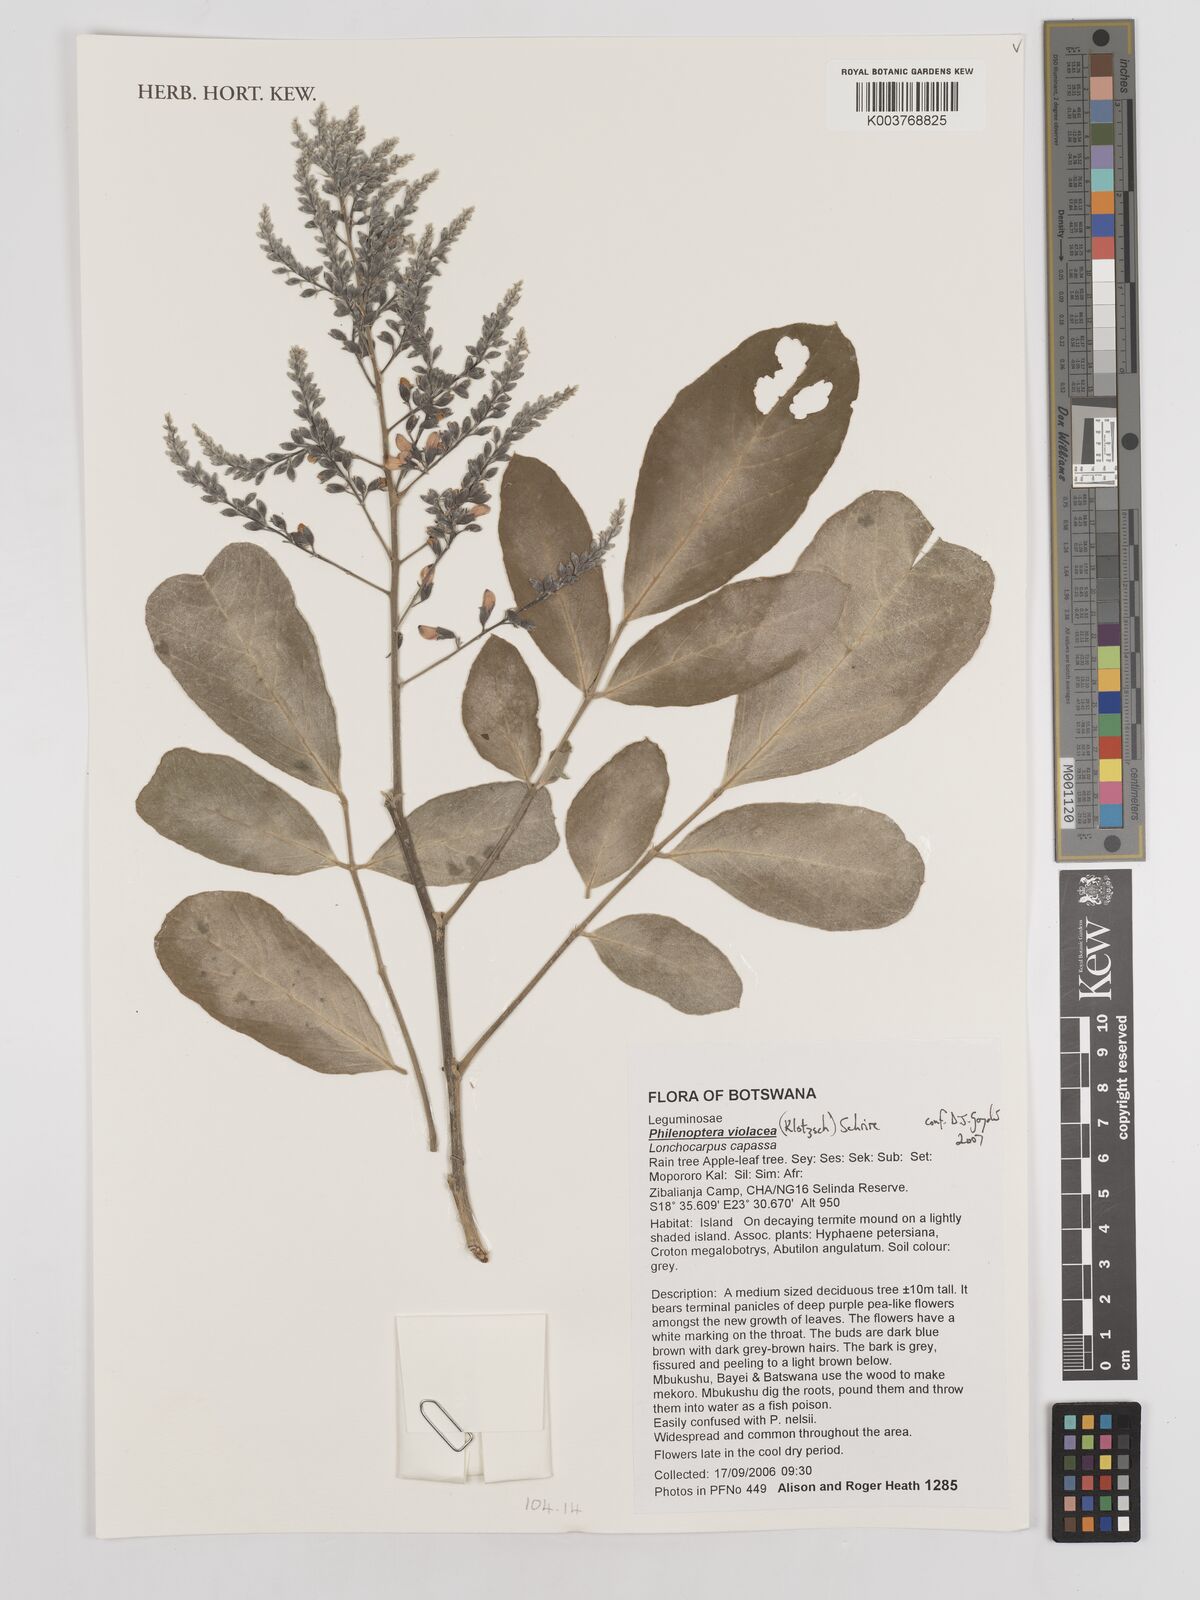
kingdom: Plantae
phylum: Tracheophyta
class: Magnoliopsida
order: Fabales
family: Fabaceae
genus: Philenoptera
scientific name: Philenoptera violacea
